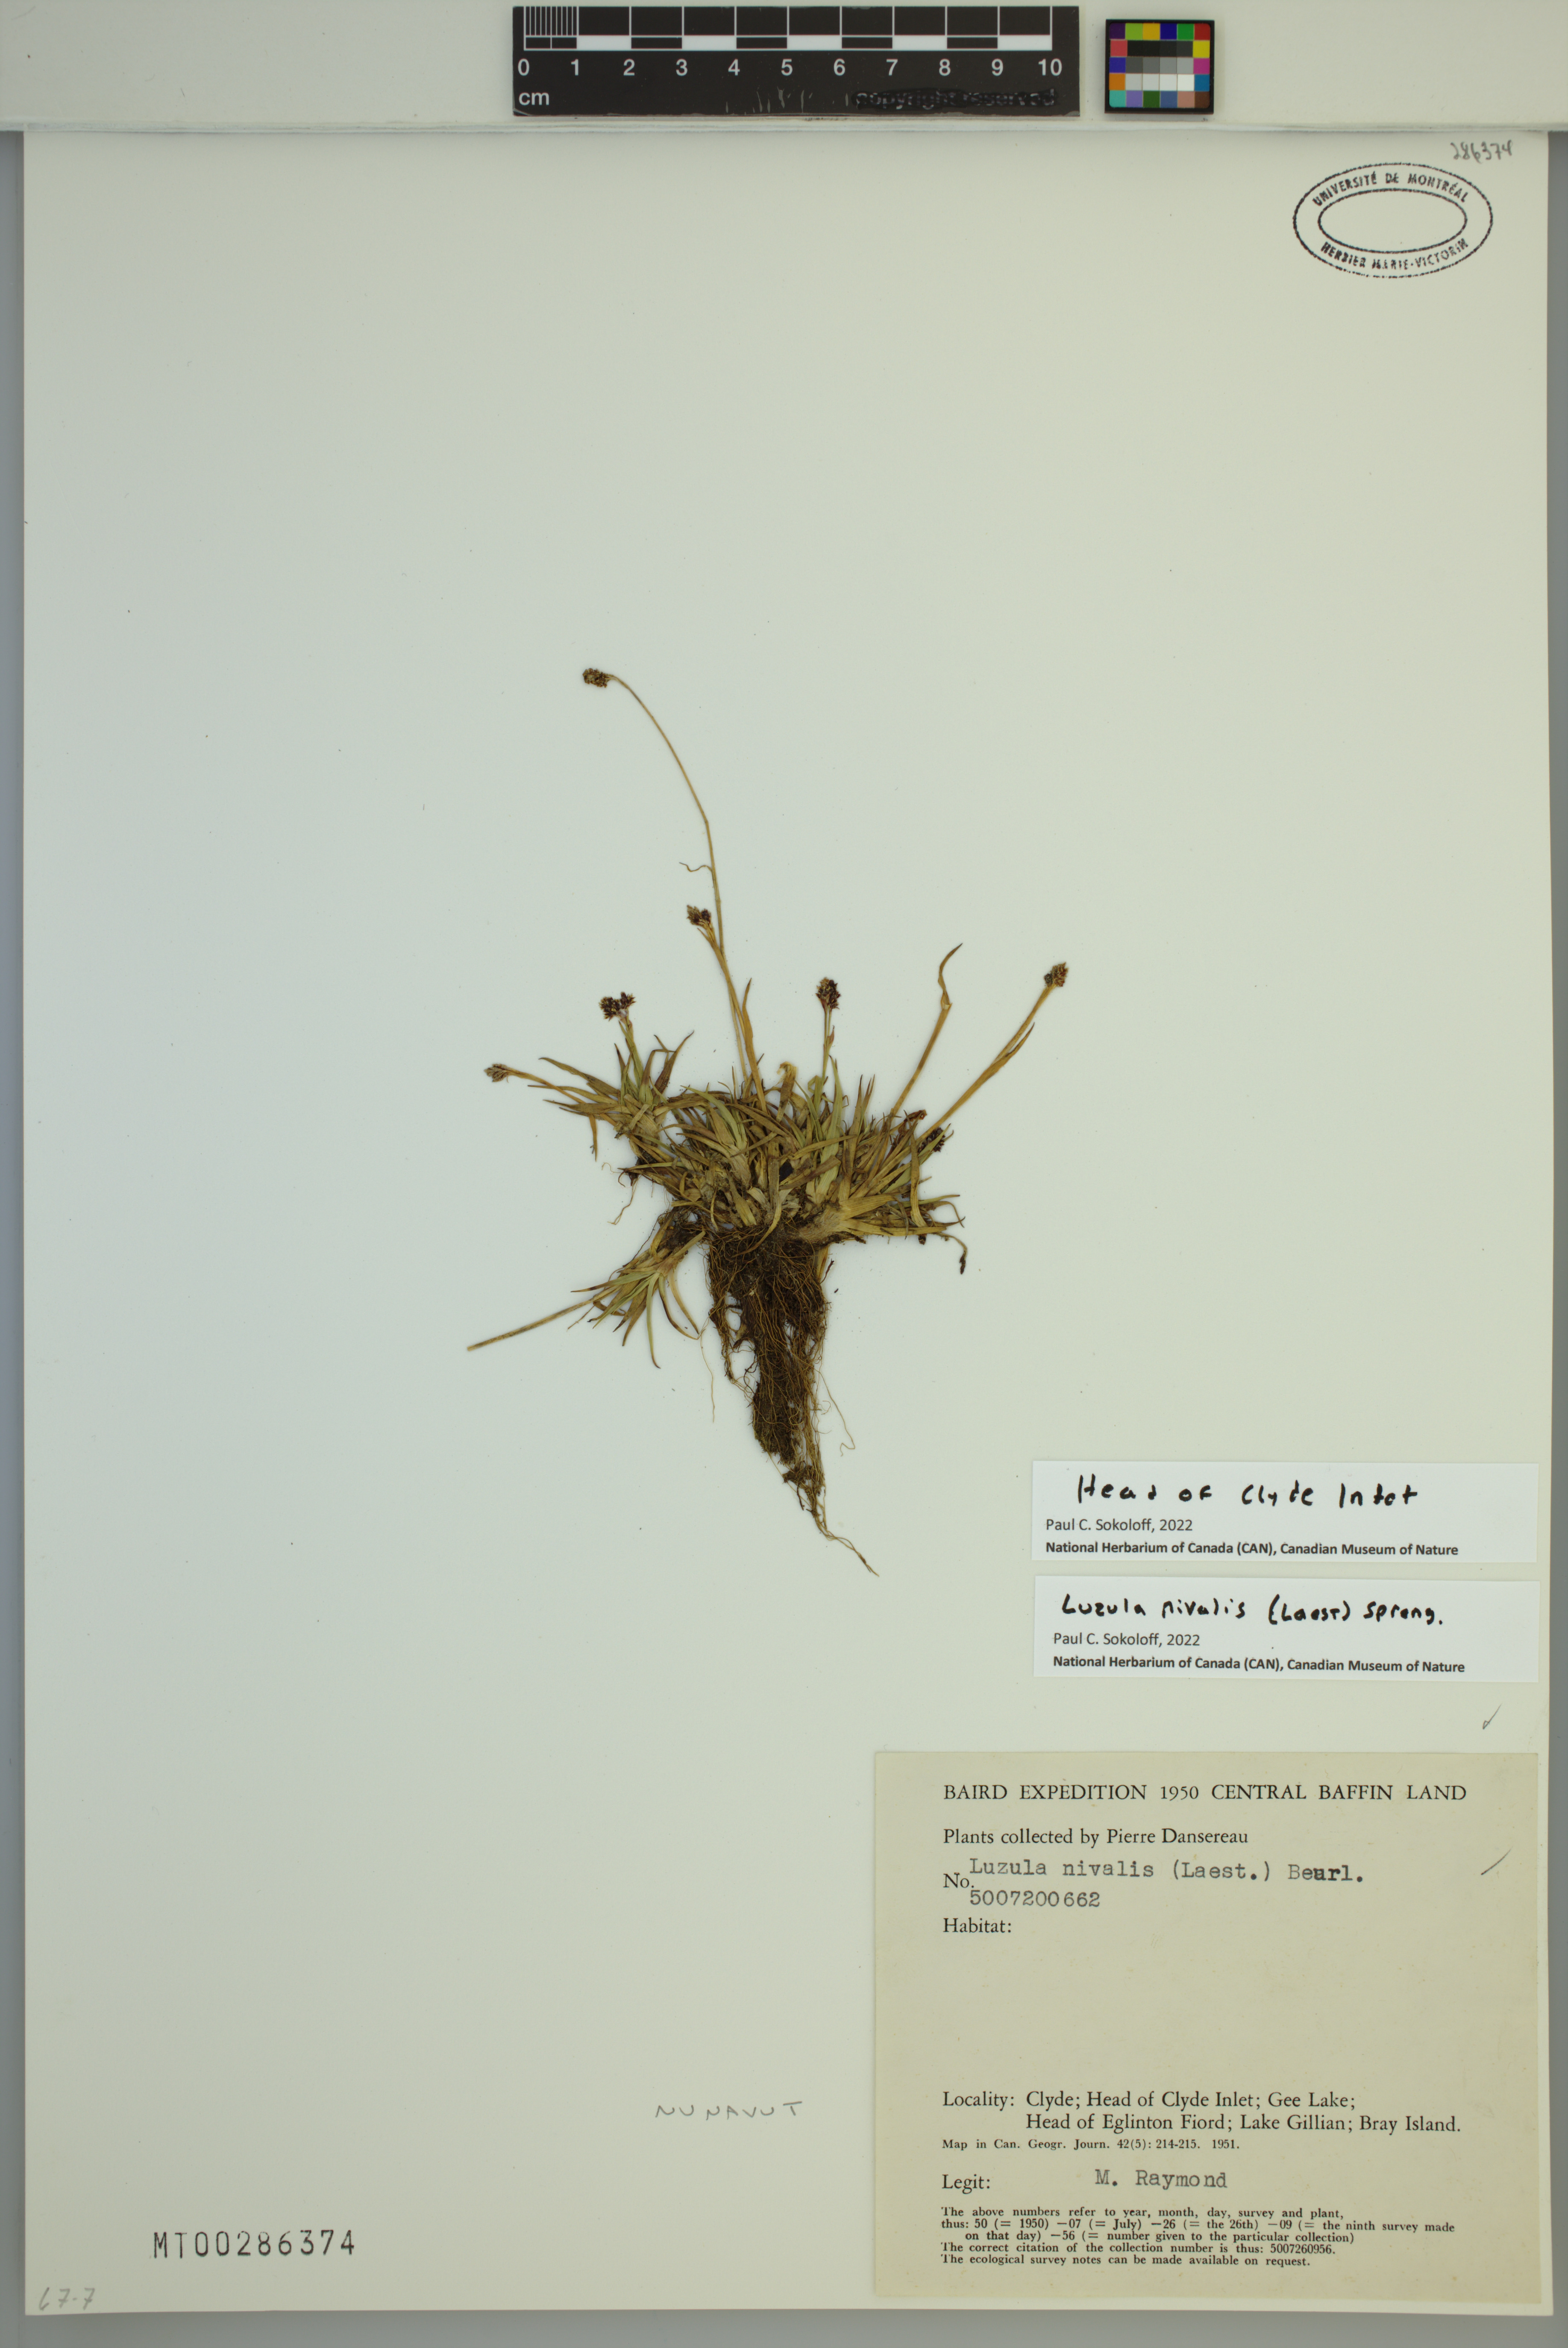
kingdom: Plantae
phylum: Tracheophyta
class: Liliopsida
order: Poales
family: Juncaceae
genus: Luzula
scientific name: Luzula nivalis
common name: Arctic woodrush
